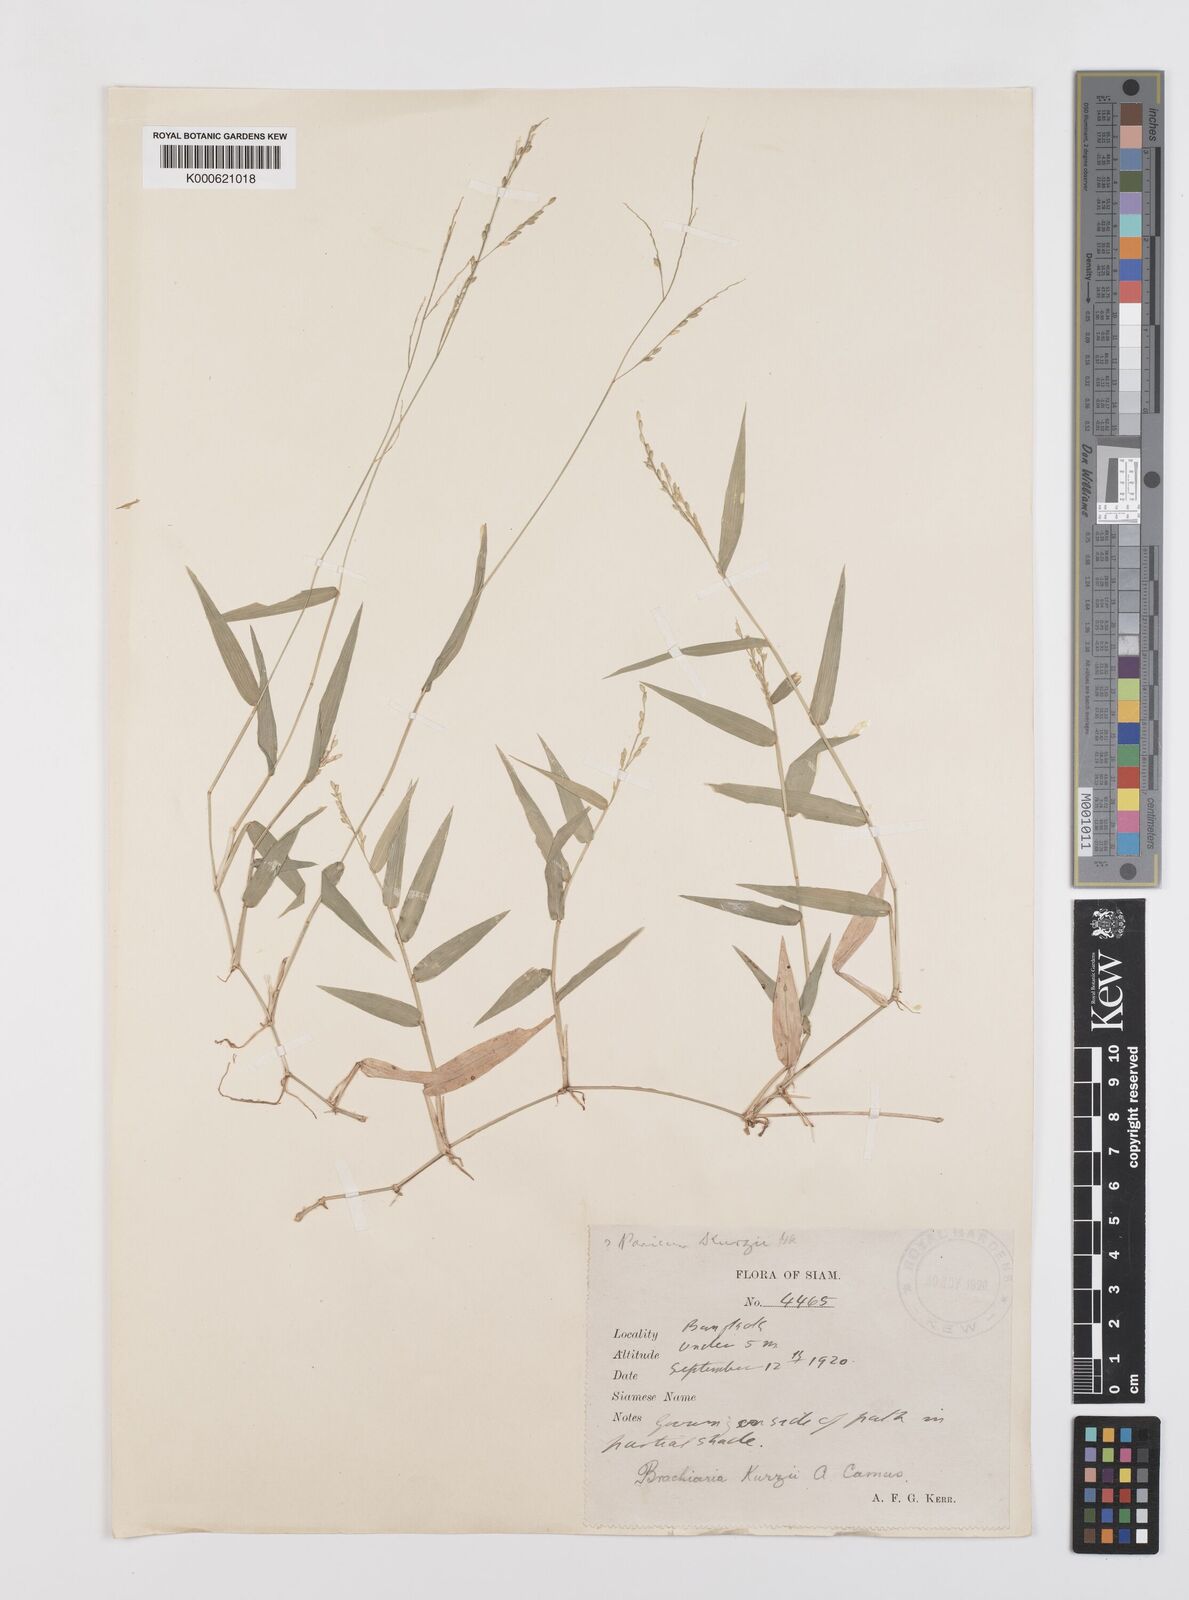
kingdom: Plantae
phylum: Tracheophyta
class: Liliopsida
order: Poales
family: Poaceae
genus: Urochloa
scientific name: Urochloa kurzii
